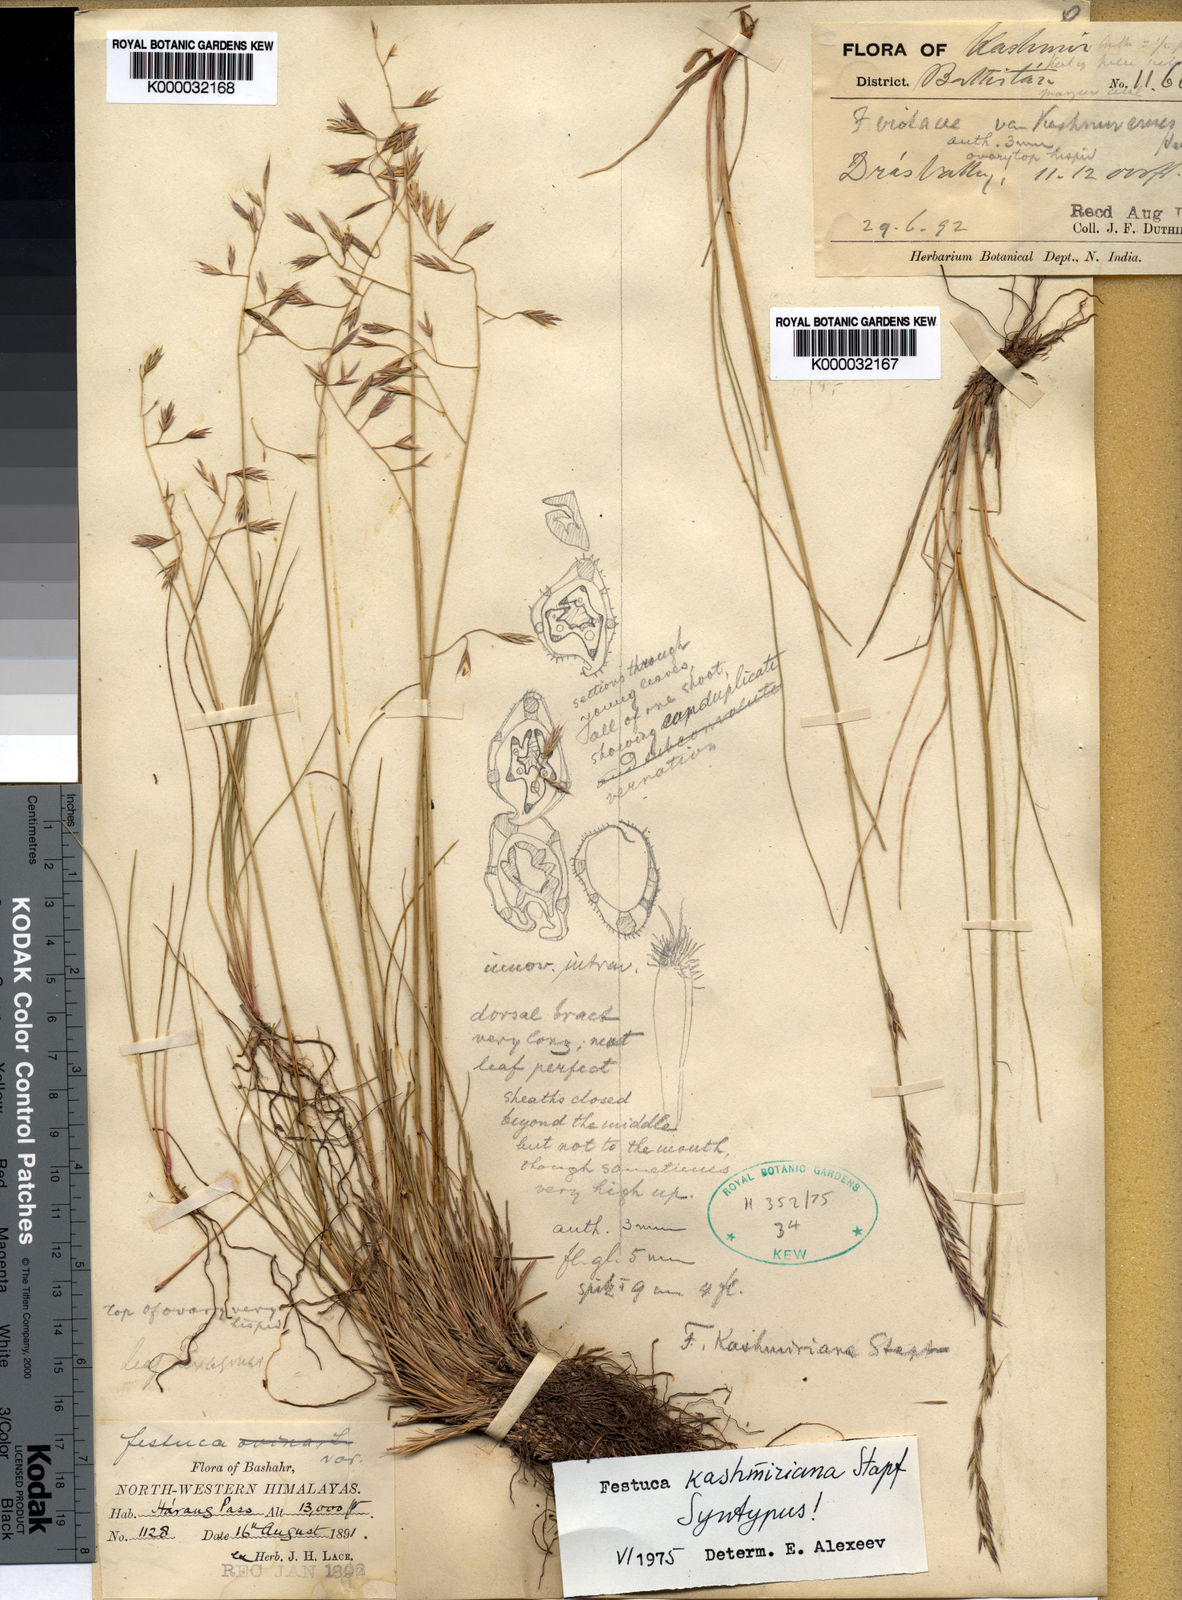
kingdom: Plantae
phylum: Tracheophyta
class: Liliopsida
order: Poales
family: Poaceae
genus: Festuca
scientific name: Festuca kashmiriana
